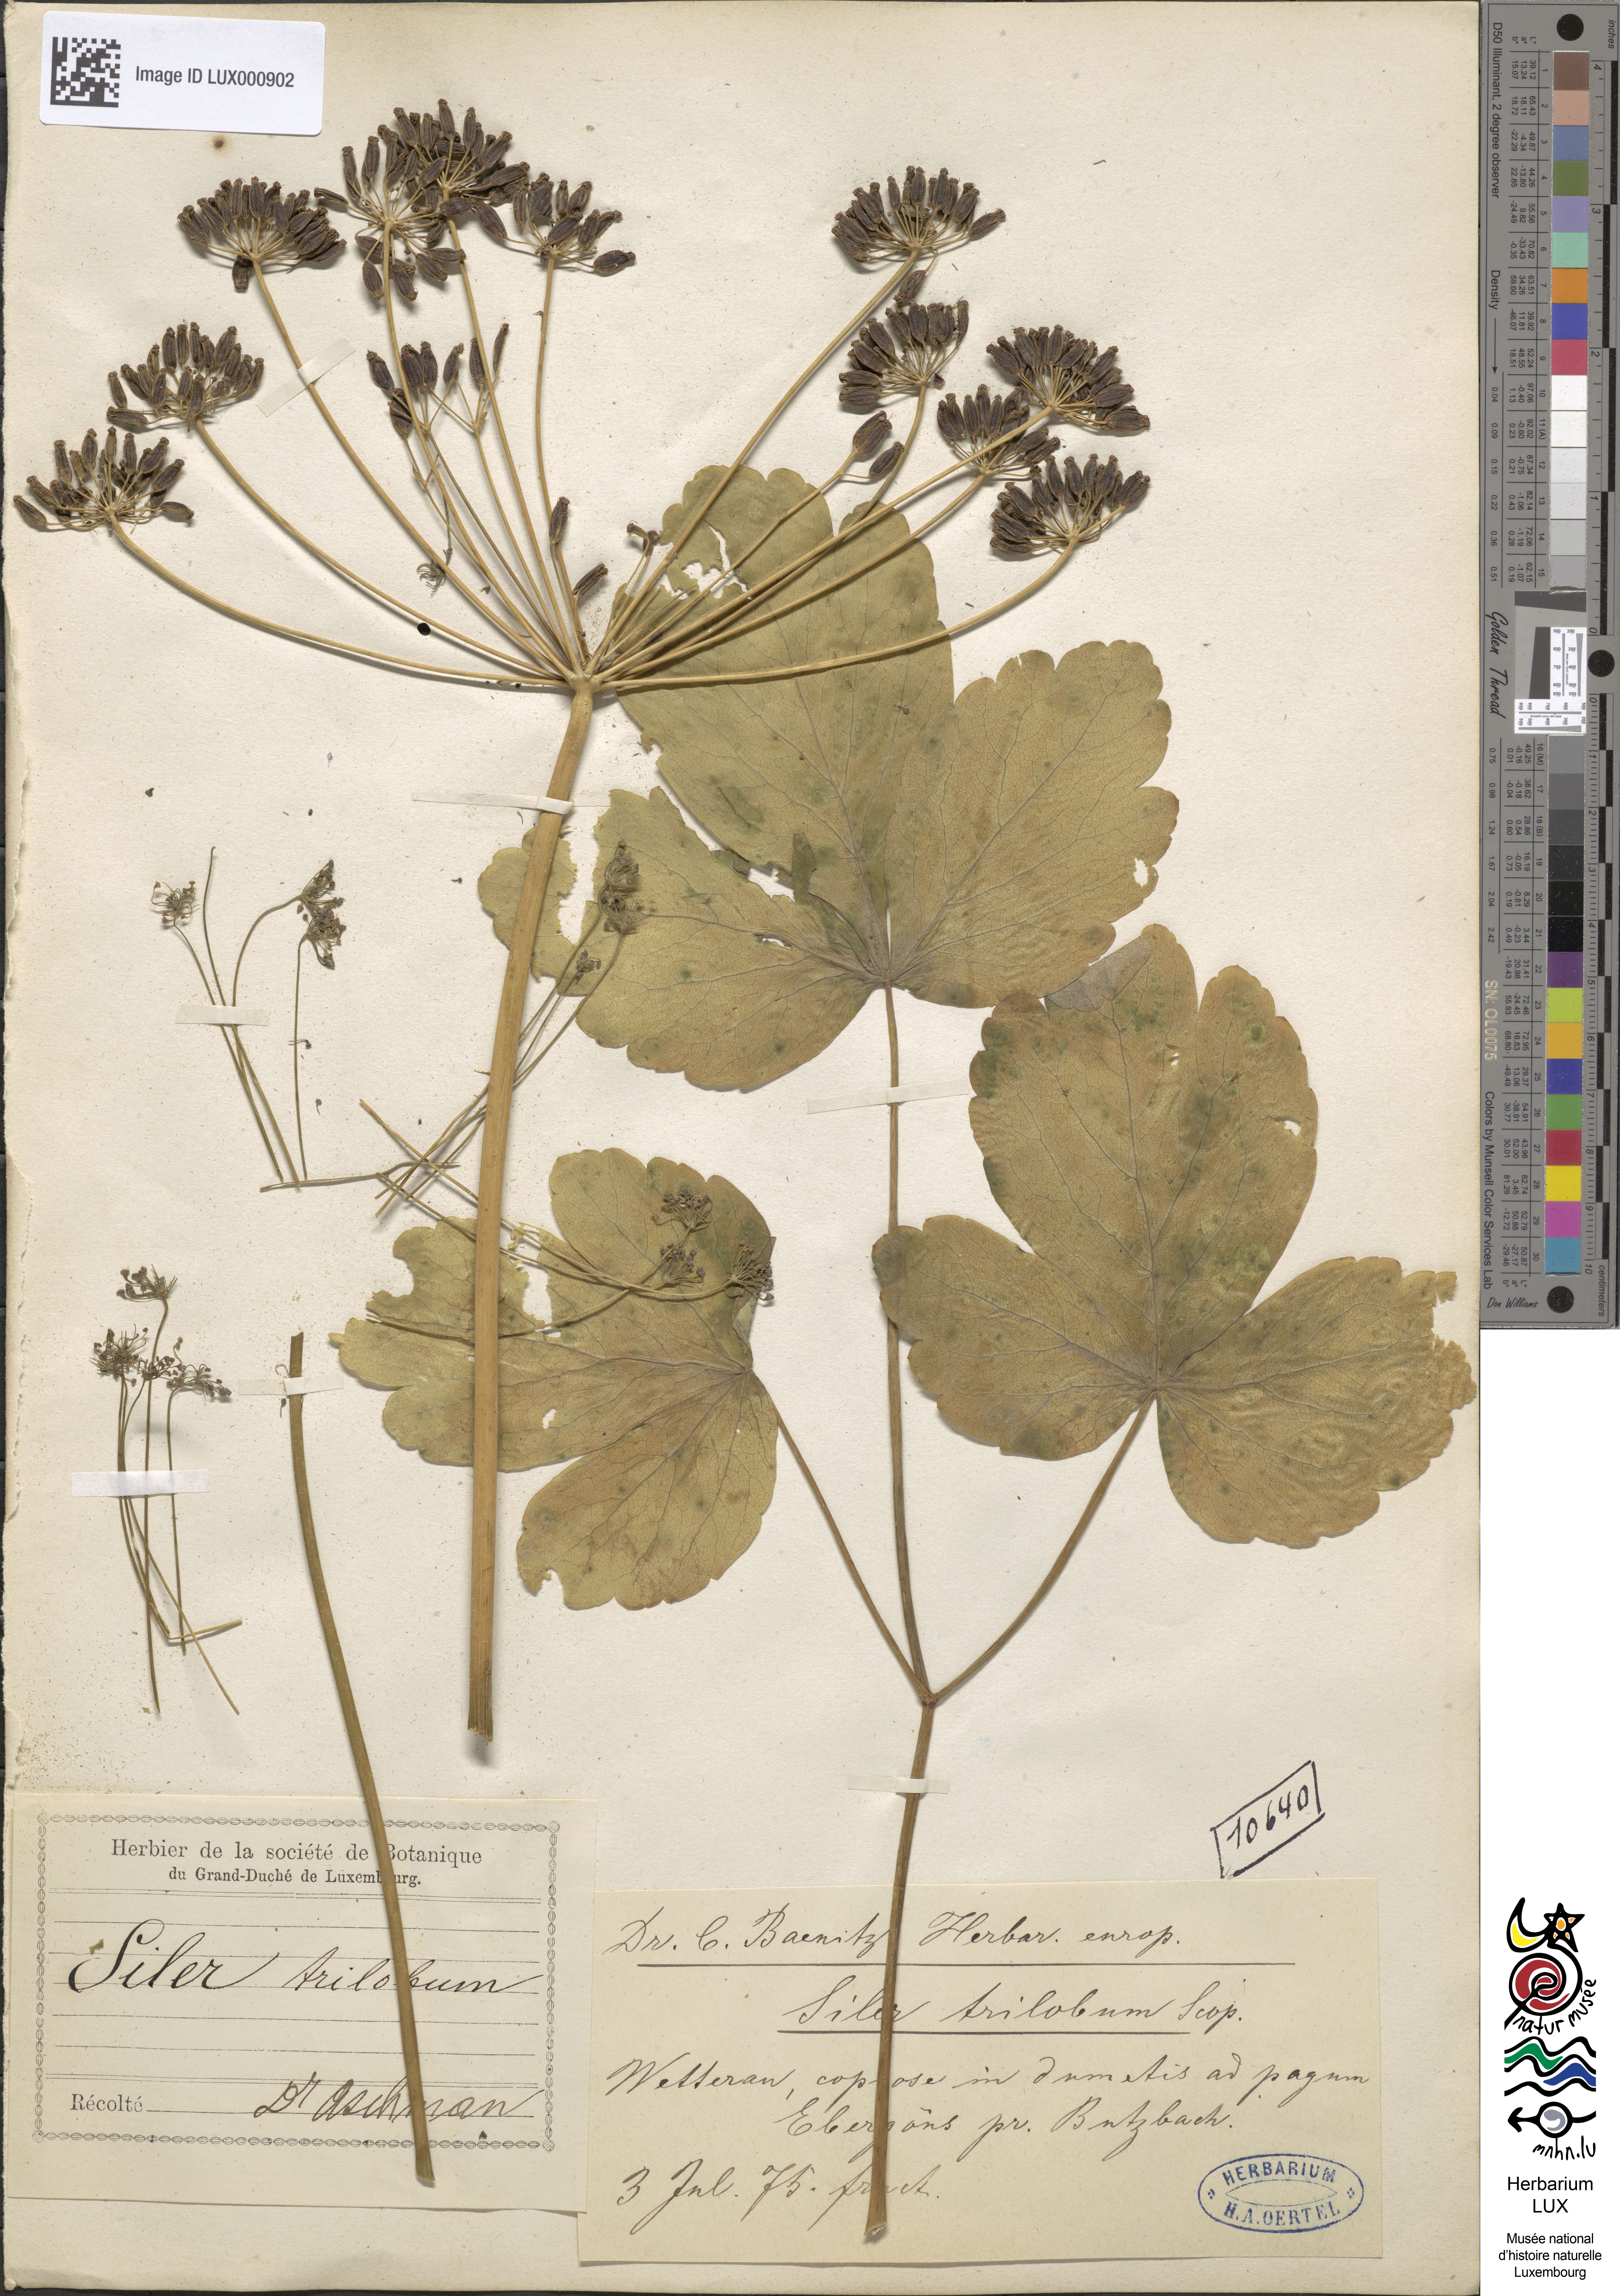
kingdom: Plantae
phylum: Tracheophyta
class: Magnoliopsida
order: Apiales
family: Apiaceae
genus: Laser
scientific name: Laser trilobum
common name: Laser
